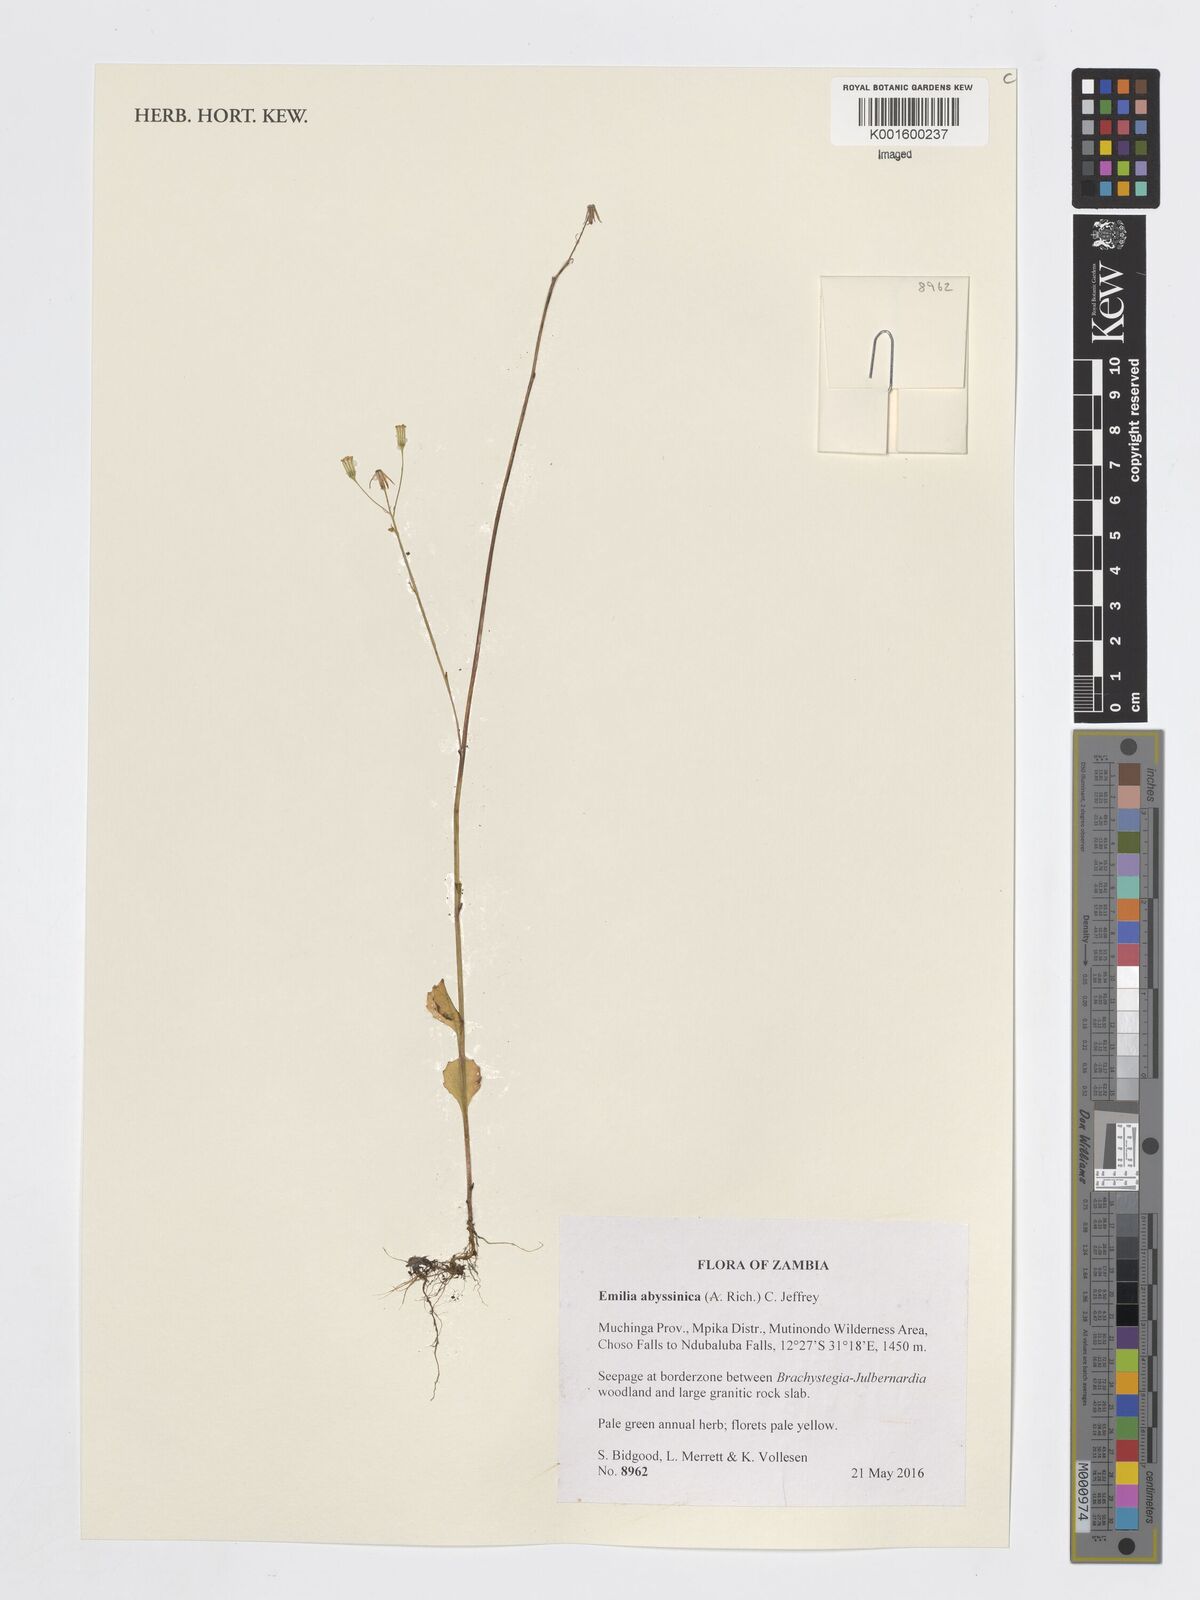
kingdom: Plantae
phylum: Tracheophyta
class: Magnoliopsida
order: Asterales
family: Asteraceae
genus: Emilia
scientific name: Emilia abyssinica
